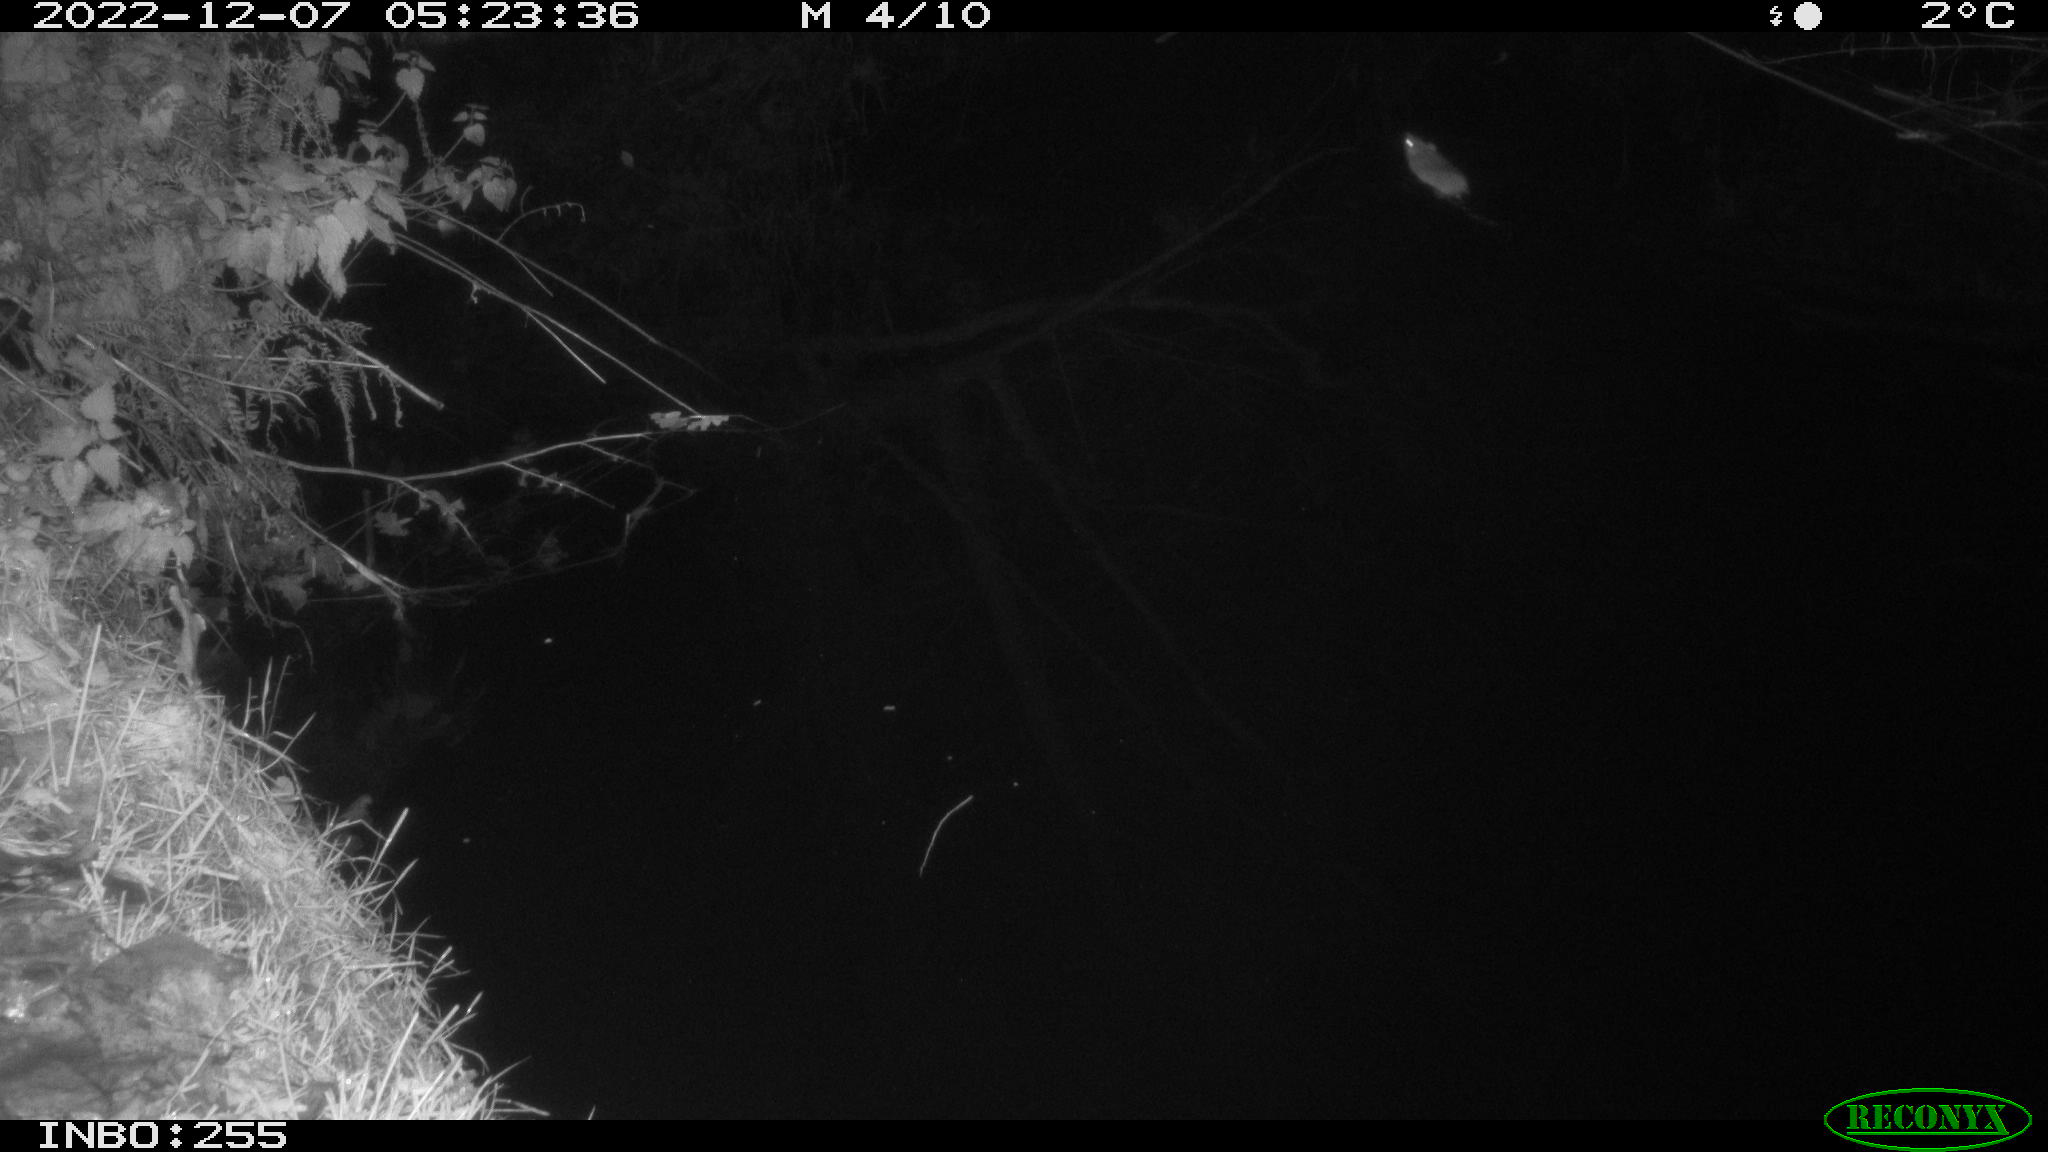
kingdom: Animalia
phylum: Chordata
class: Mammalia
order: Rodentia
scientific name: Rodentia
